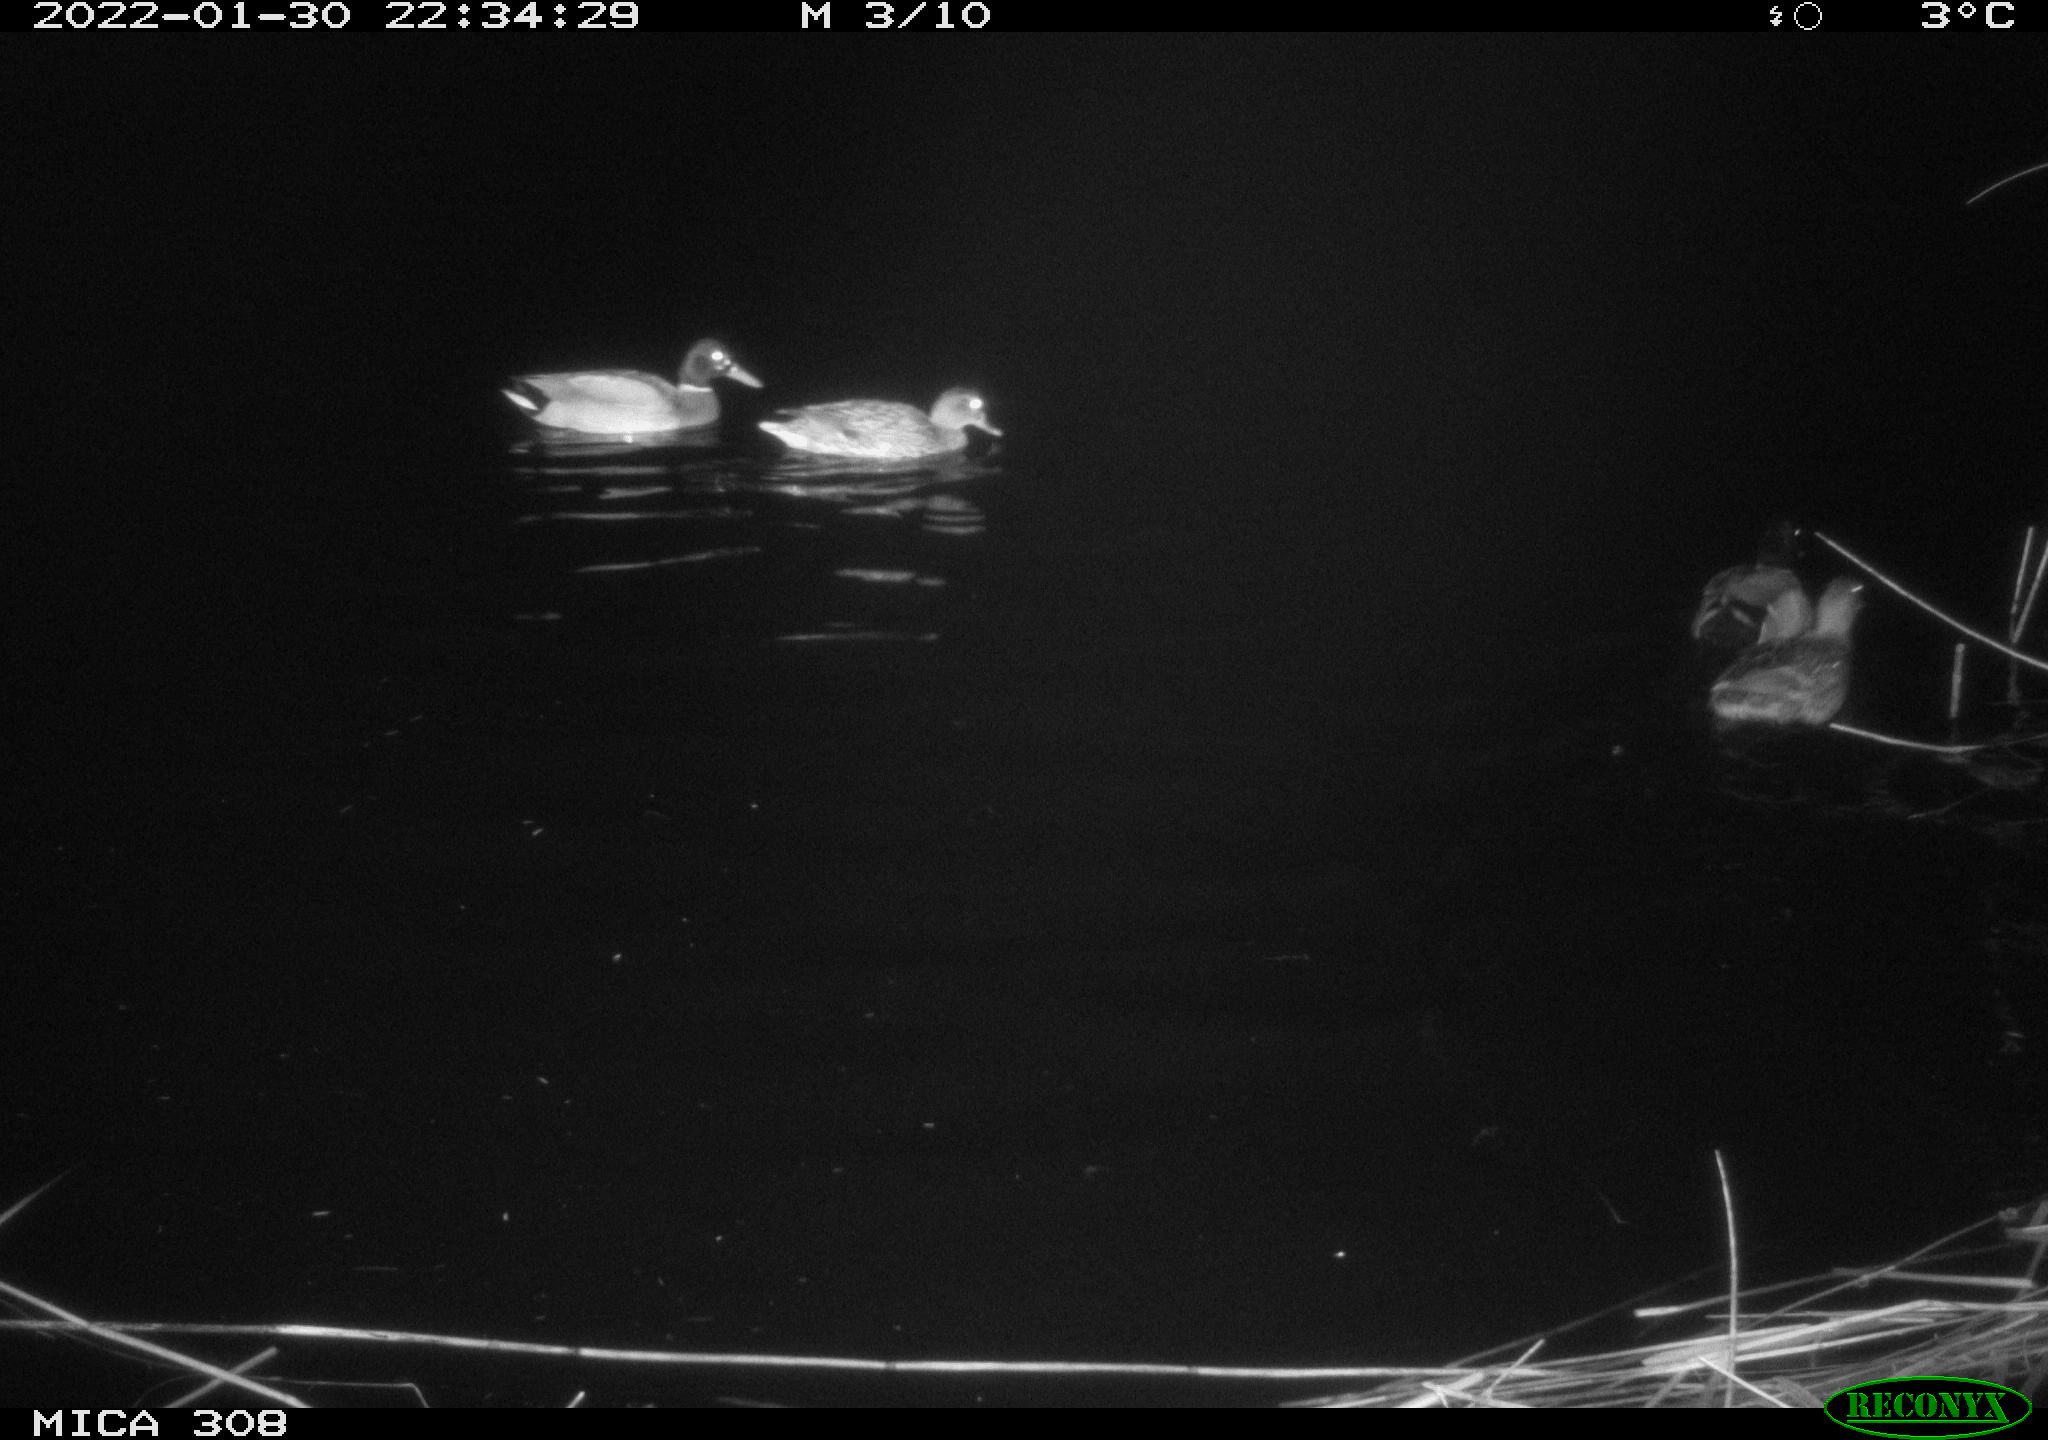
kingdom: Animalia
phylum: Chordata
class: Aves
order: Anseriformes
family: Anatidae
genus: Anas
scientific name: Anas
